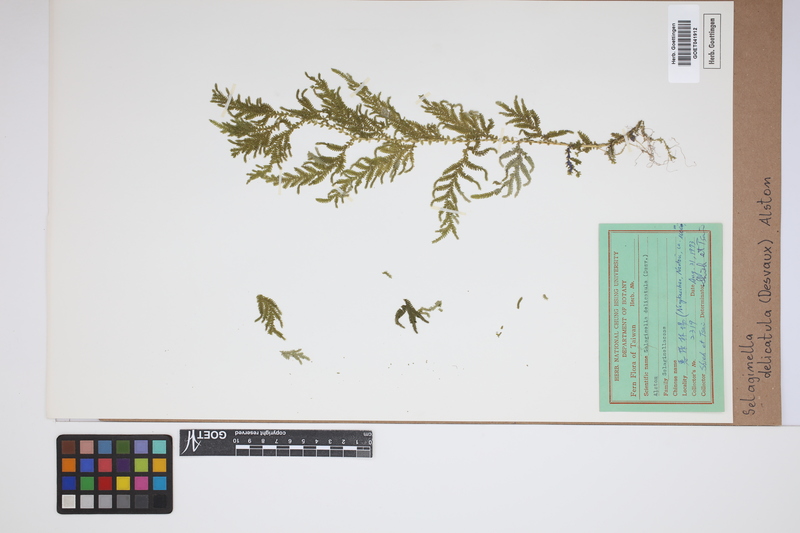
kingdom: Plantae
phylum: Tracheophyta
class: Lycopodiopsida
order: Selaginellales
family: Selaginellaceae
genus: Selaginella
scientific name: Selaginella delicatula
